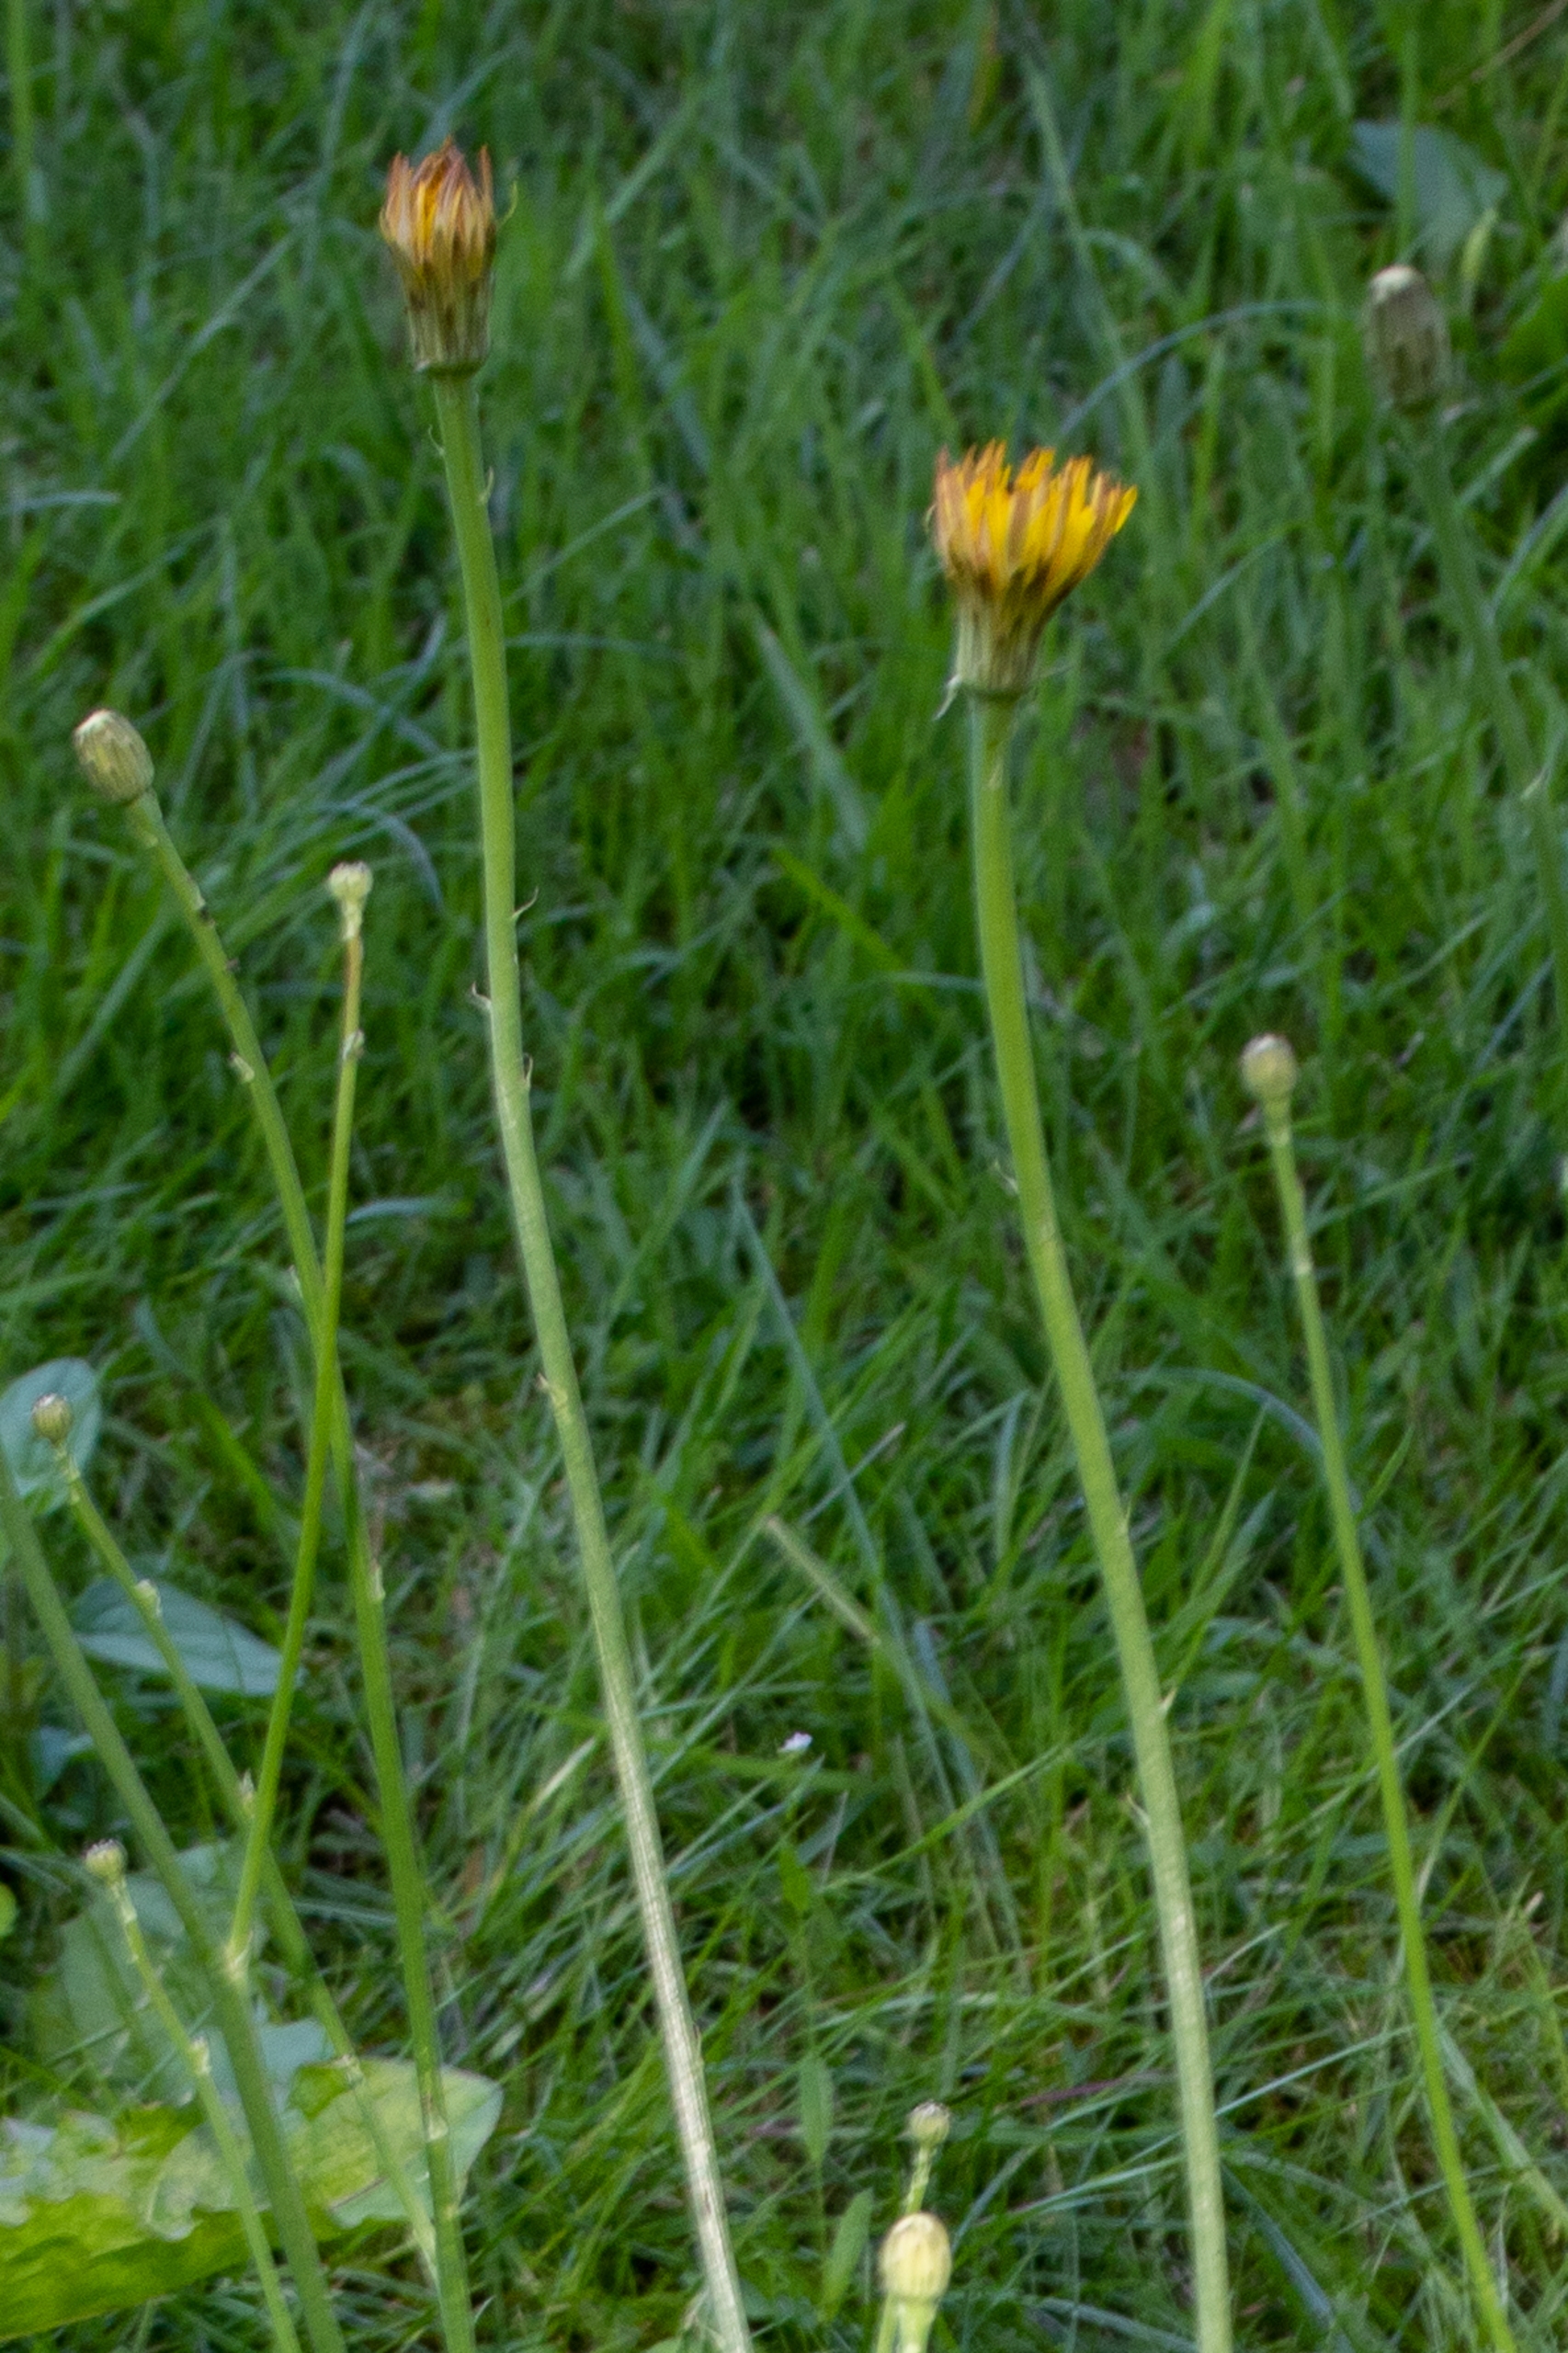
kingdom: Plantae
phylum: Tracheophyta
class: Magnoliopsida
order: Asterales
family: Asteraceae
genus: Hypochaeris
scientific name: Hypochaeris radicata
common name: Almindelig kongepen
